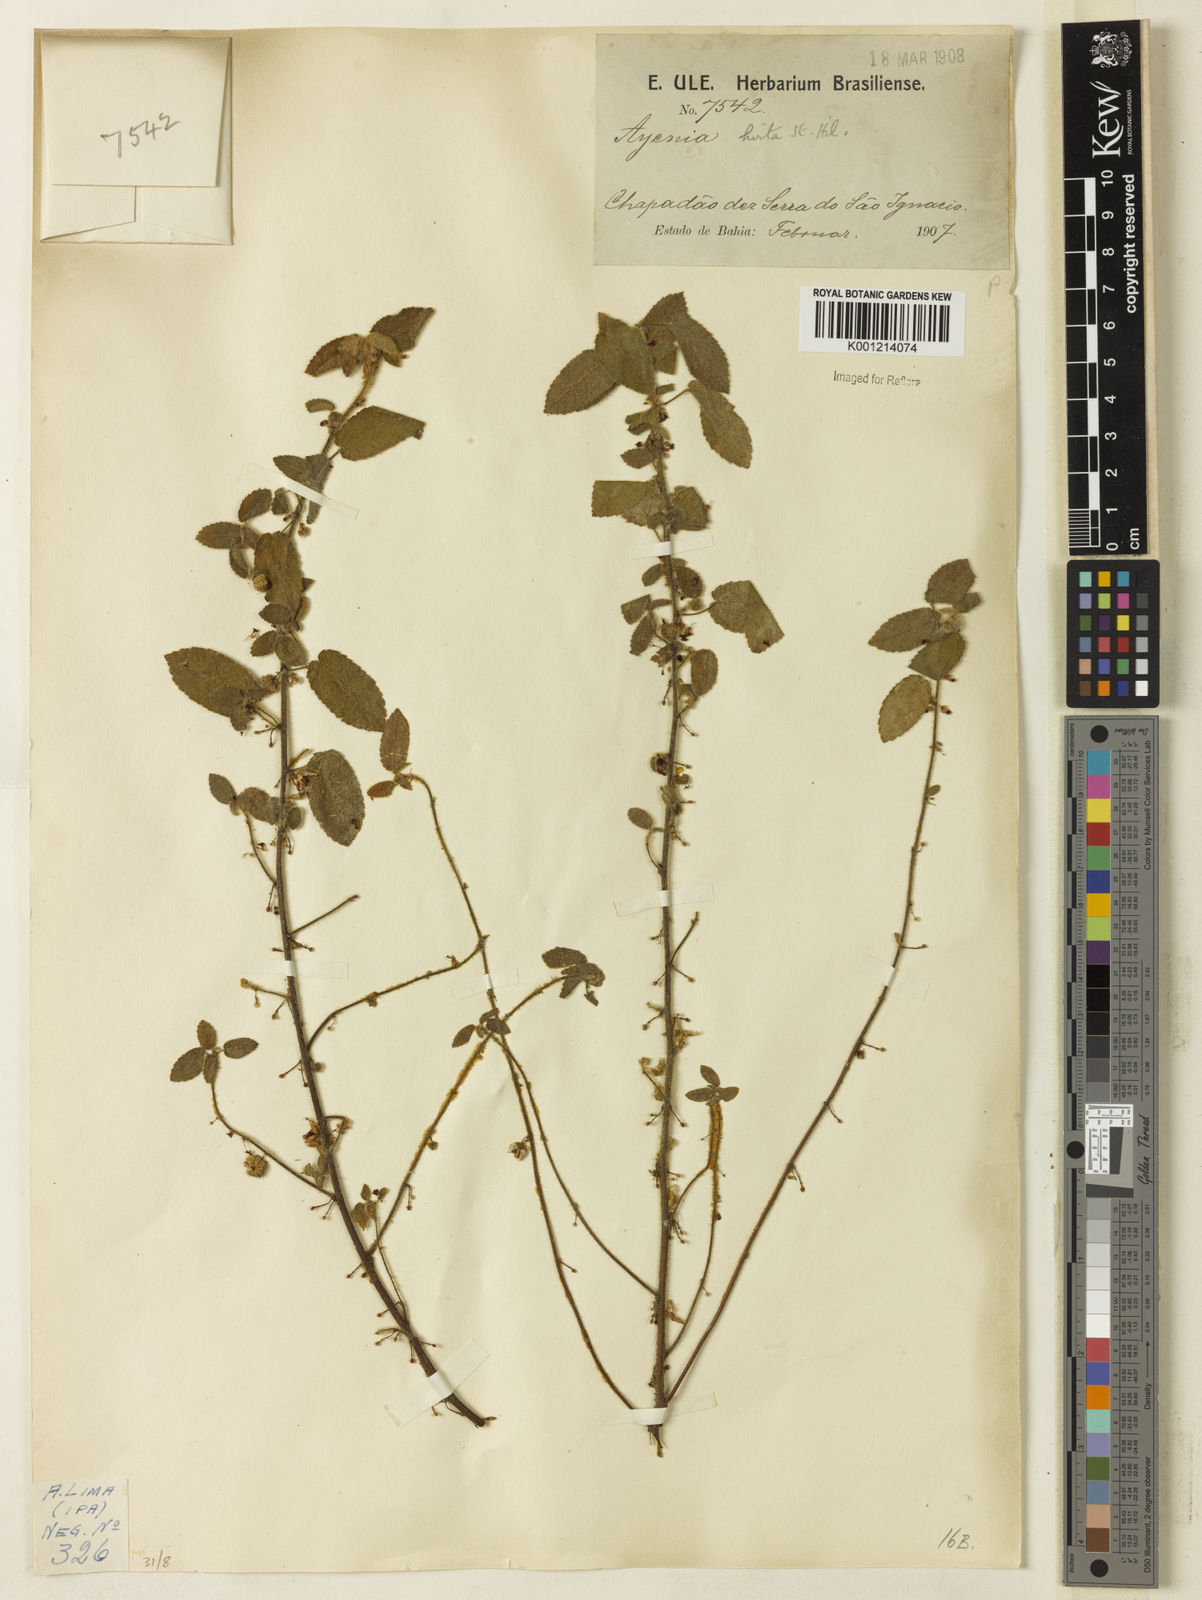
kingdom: Plantae
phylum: Tracheophyta
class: Magnoliopsida
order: Malvales
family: Malvaceae
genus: Ayenia
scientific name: Ayenia hirta
